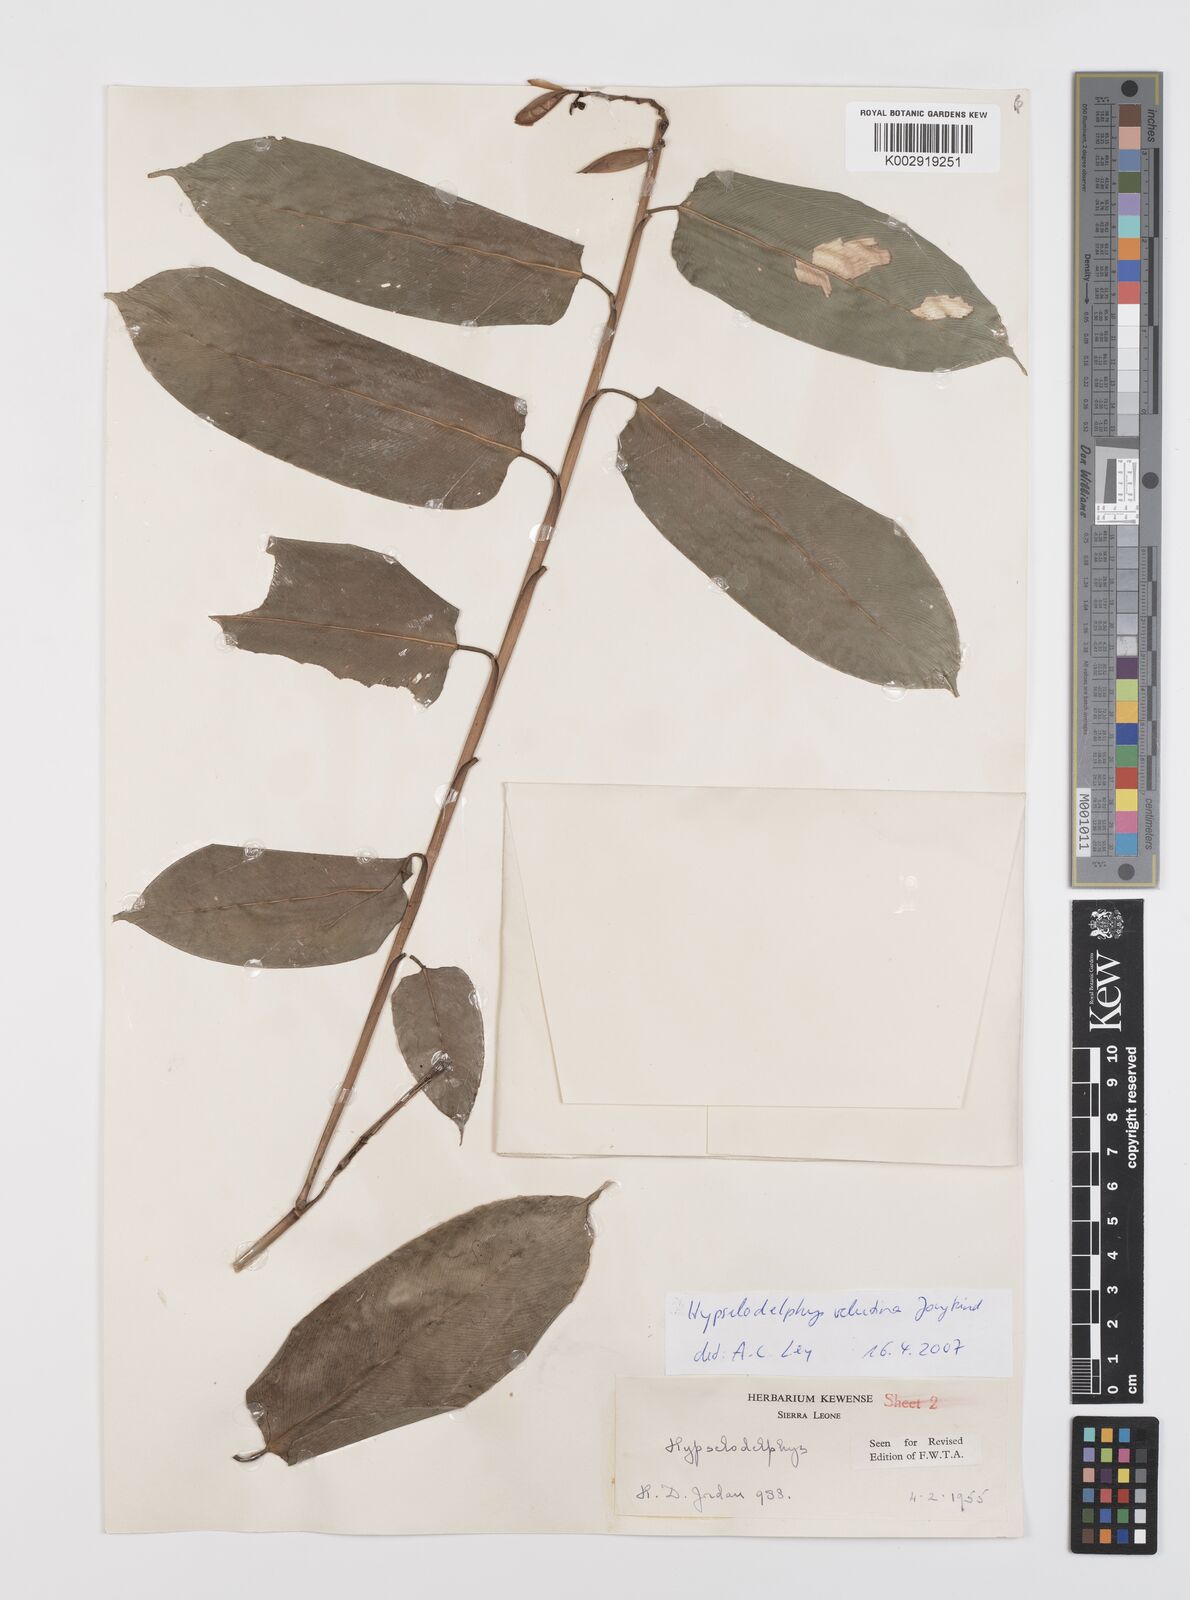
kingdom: Plantae
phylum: Tracheophyta
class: Liliopsida
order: Zingiberales
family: Marantaceae
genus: Hypselodelphys
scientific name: Hypselodelphys velutina
